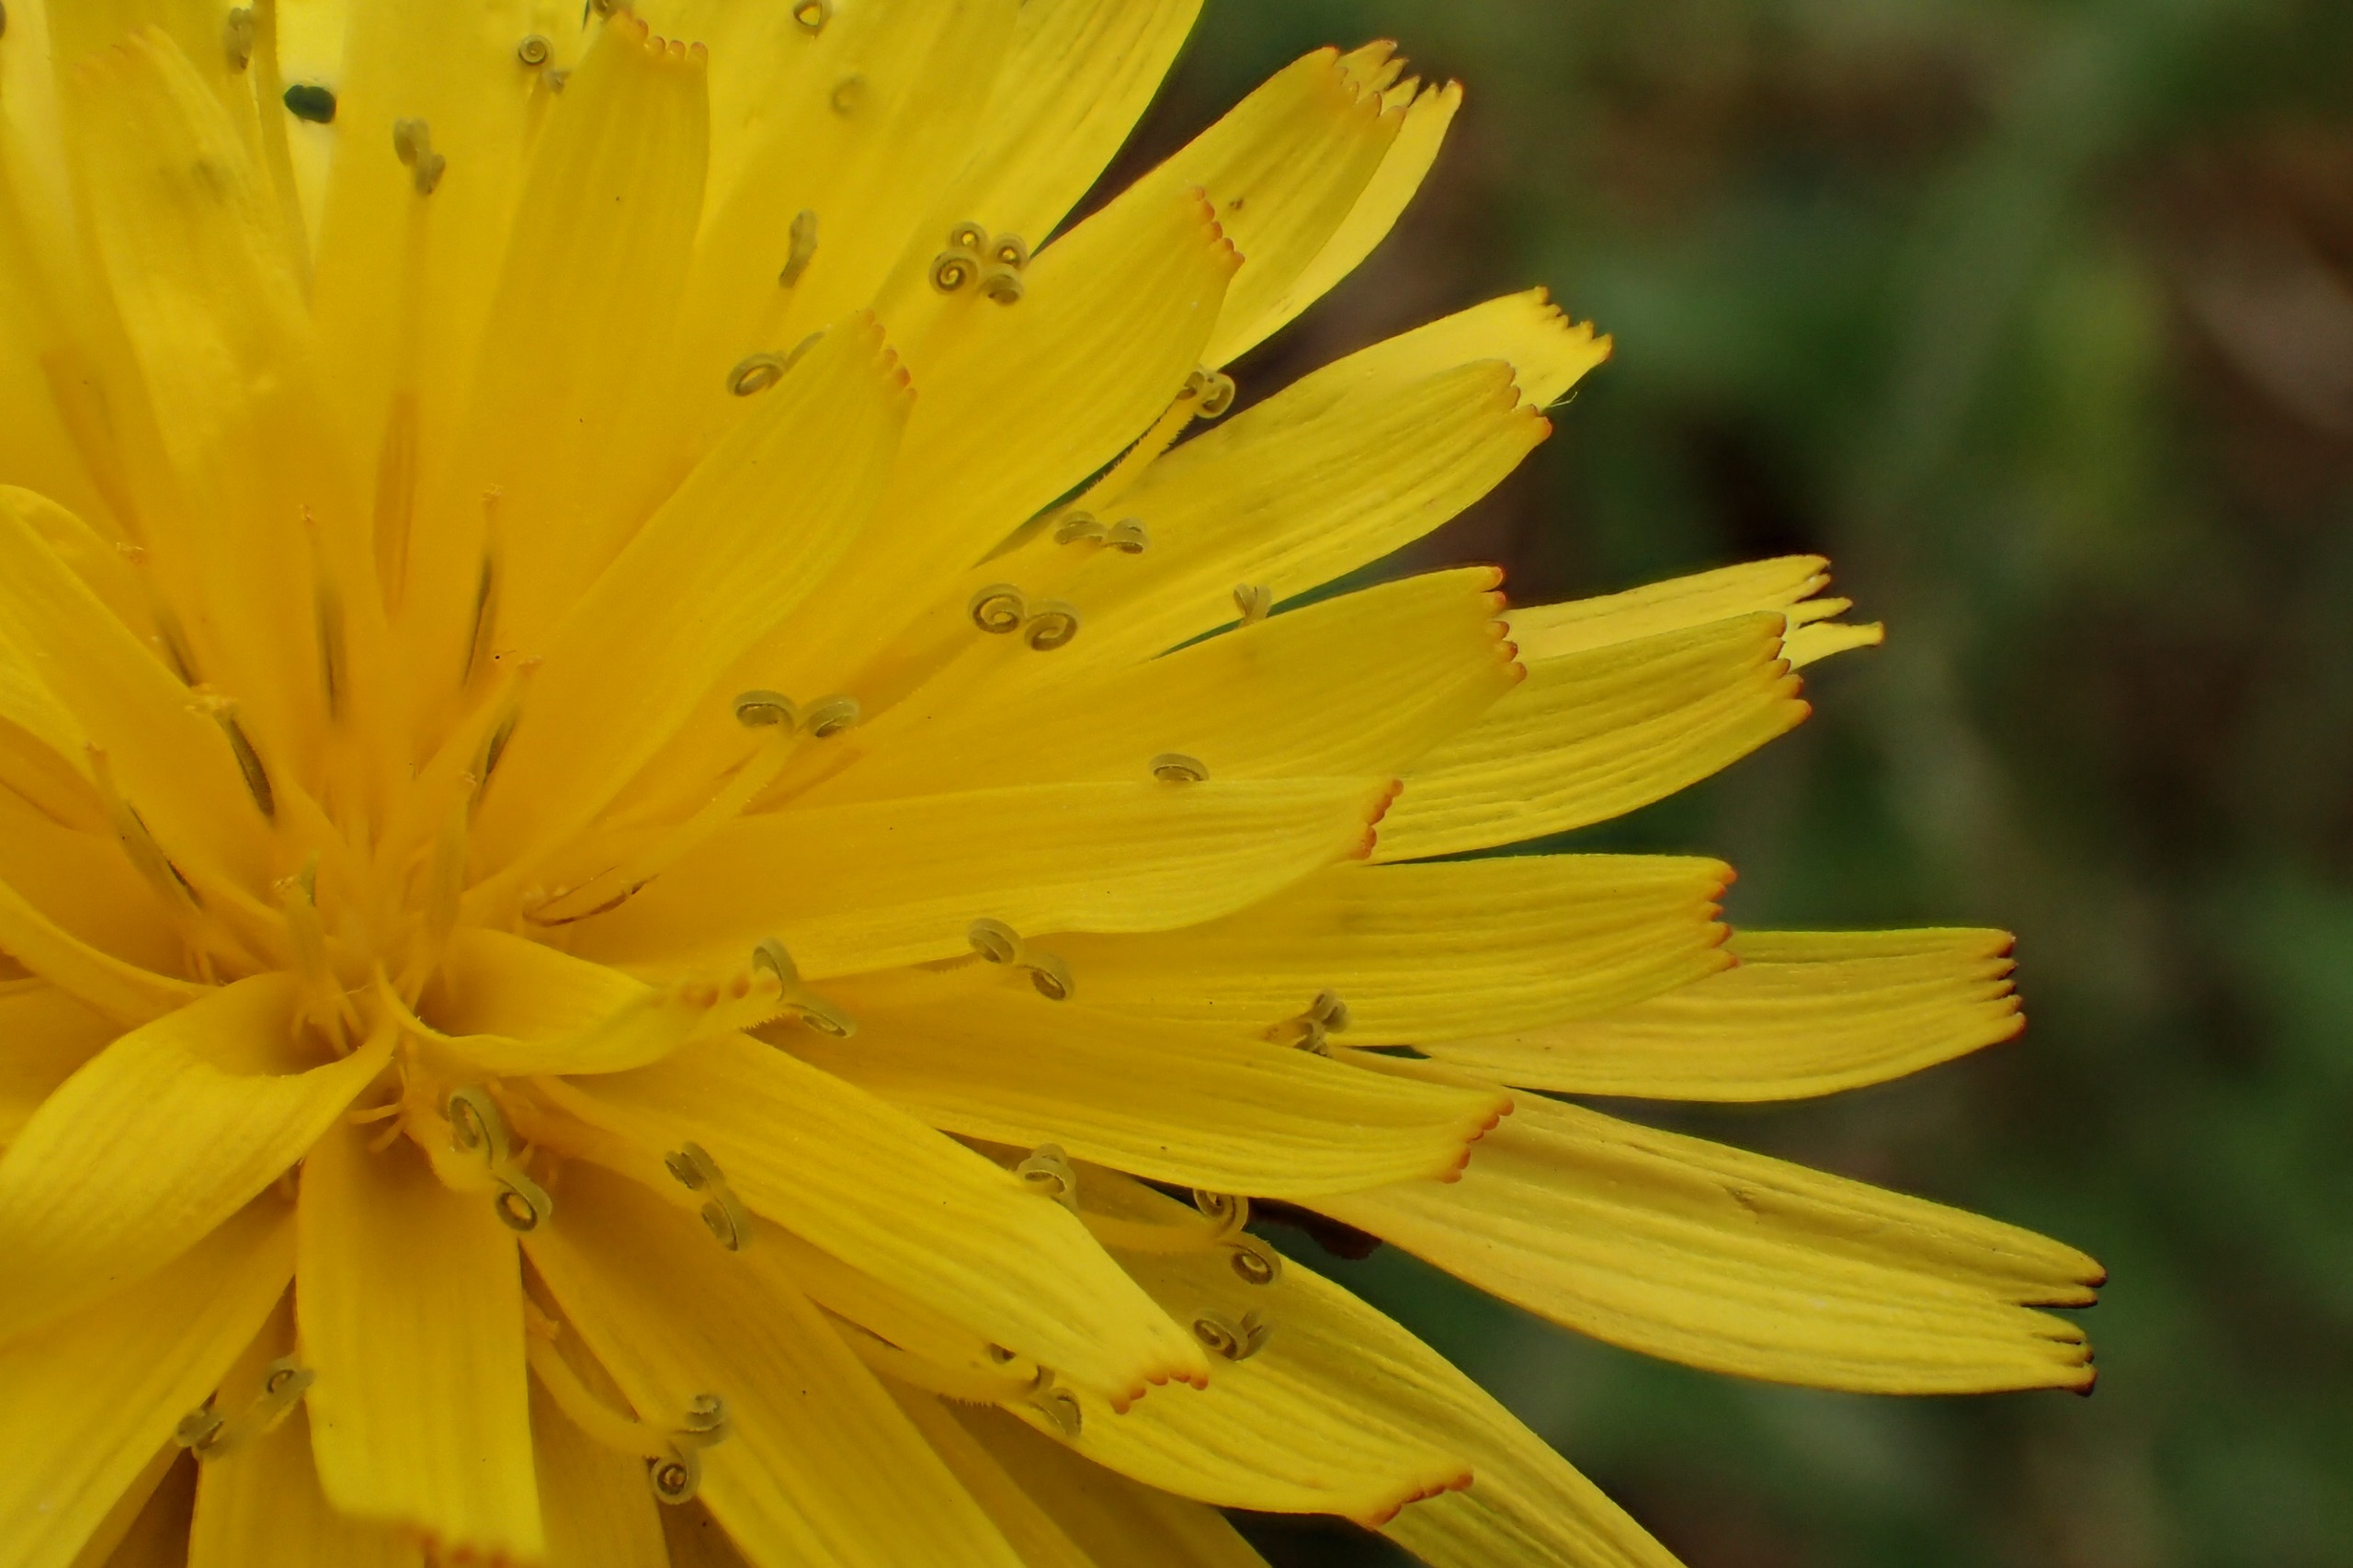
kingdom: Plantae
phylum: Tracheophyta
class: Magnoliopsida
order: Asterales
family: Asteraceae
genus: Taraxacum
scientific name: Taraxacum nordstedtii
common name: Nordstedts kærmælkebøtte
